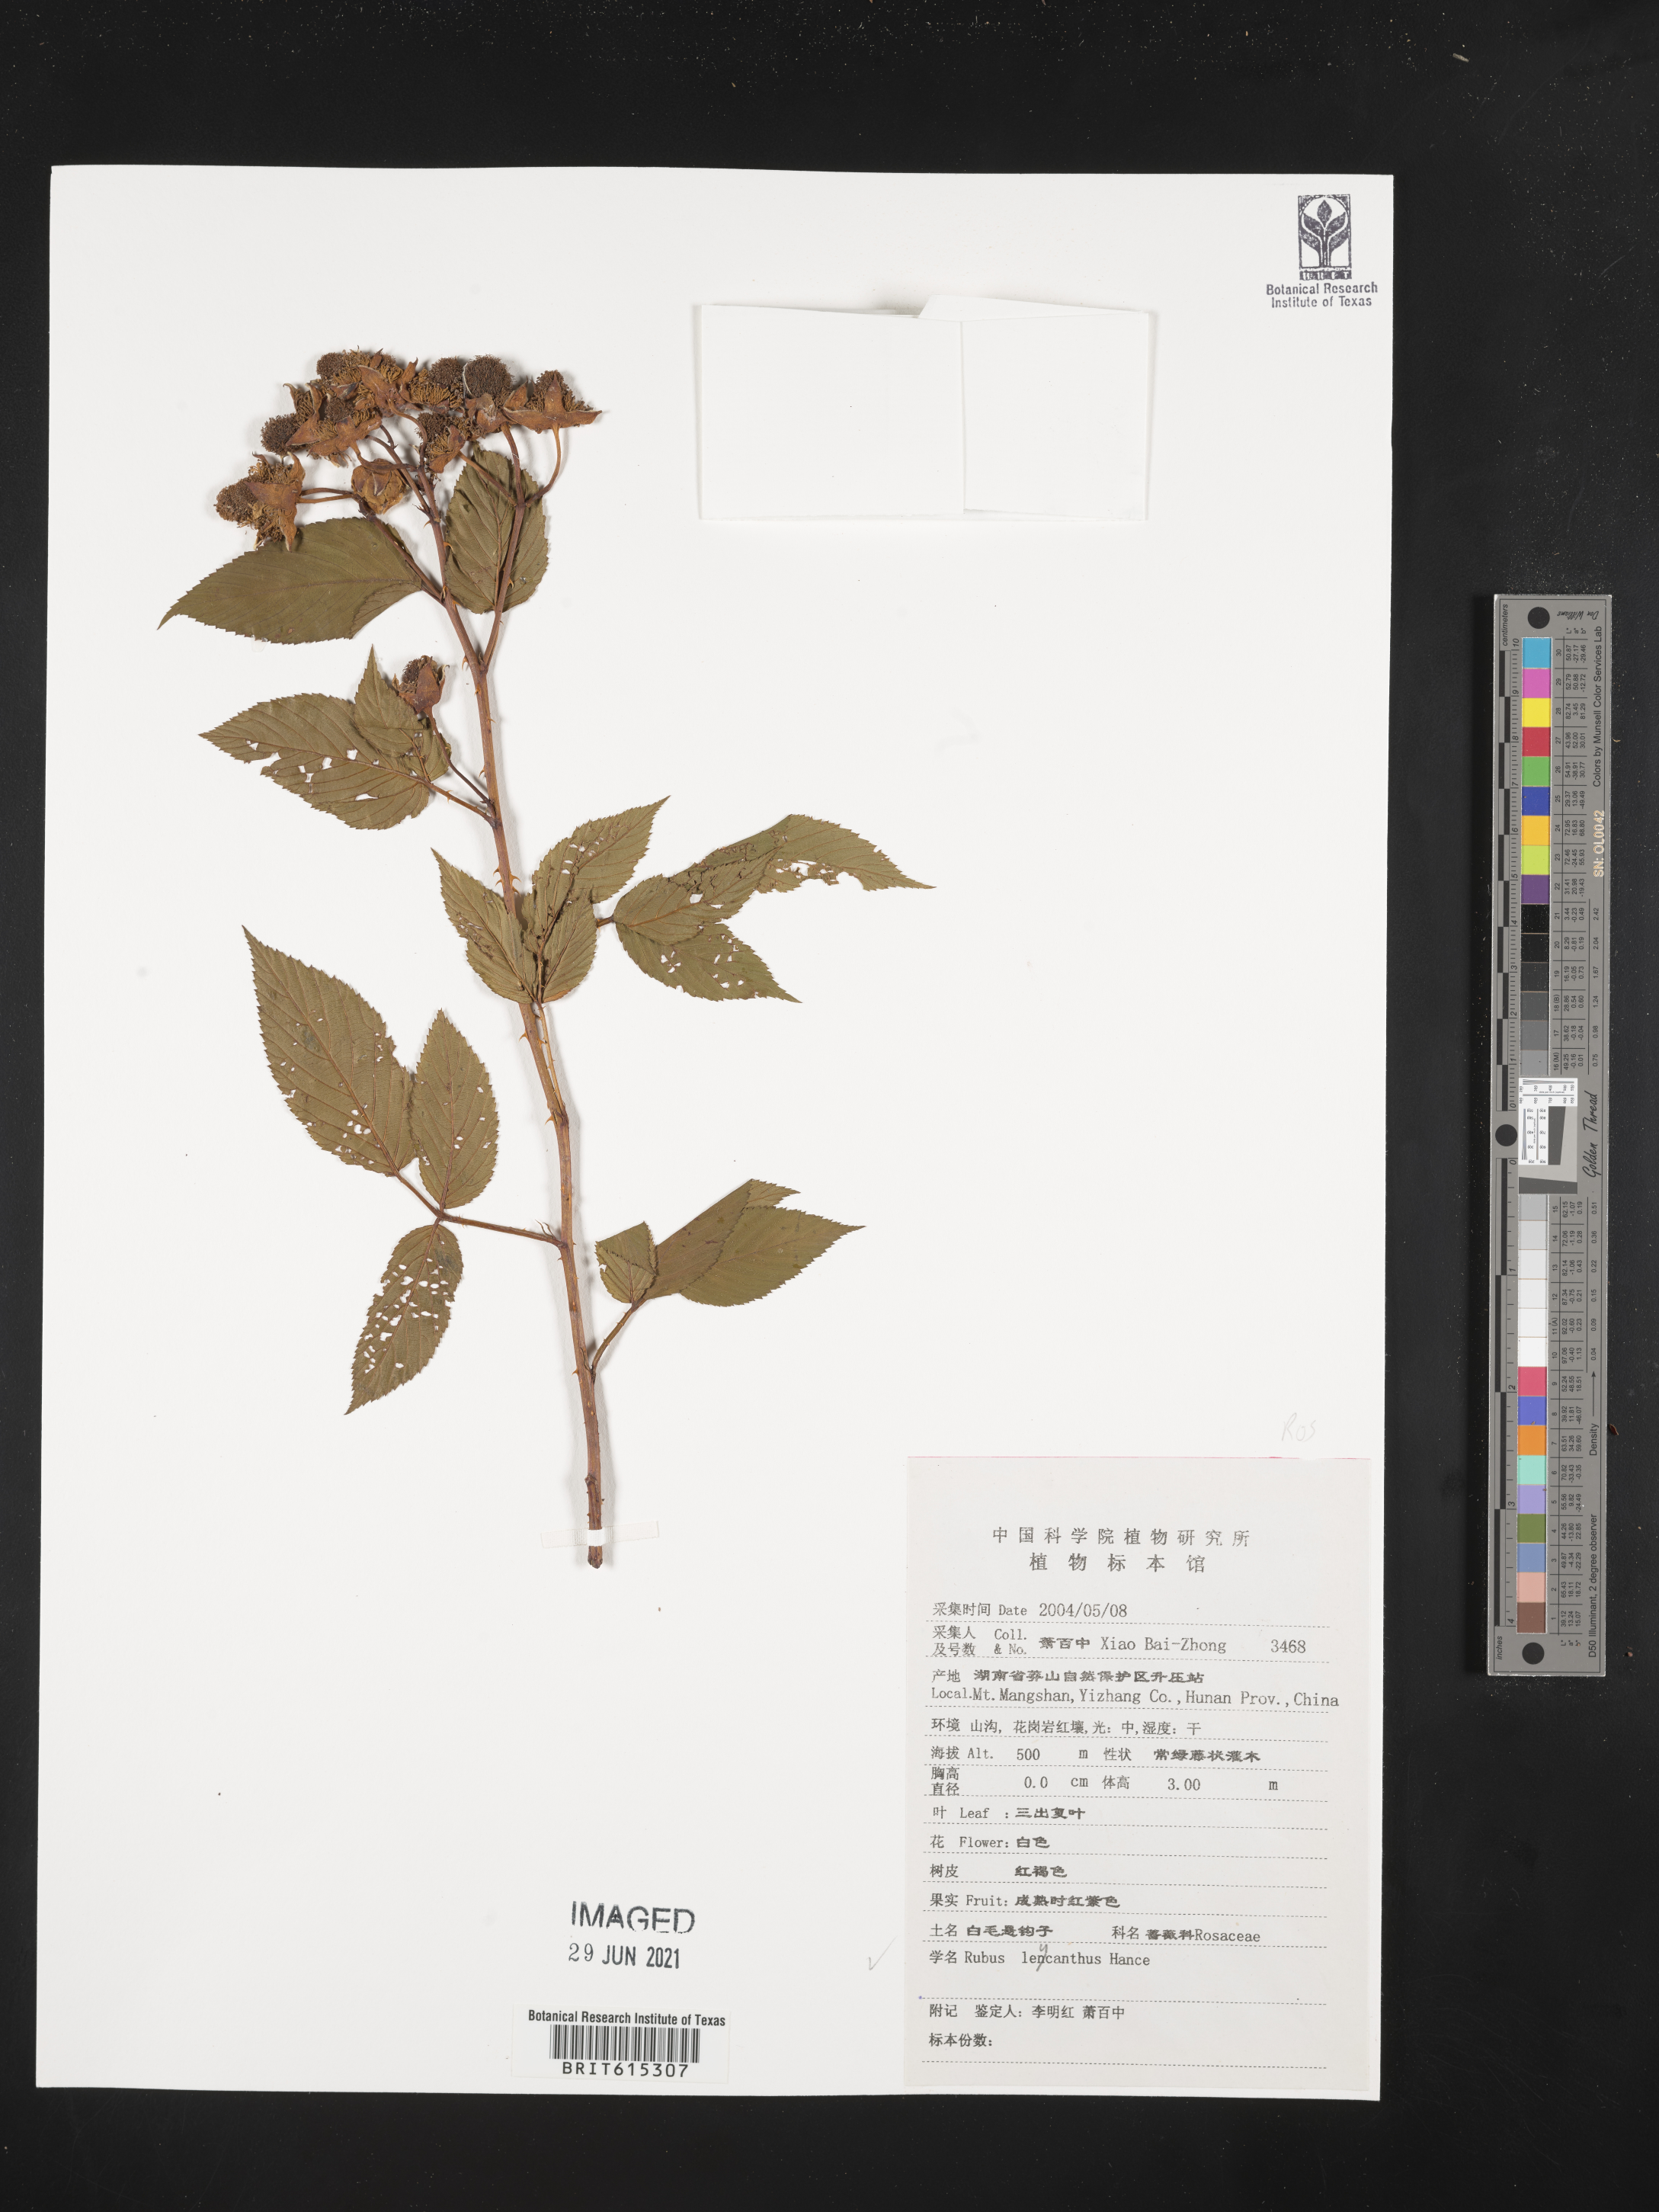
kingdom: Plantae
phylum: Tracheophyta
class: Magnoliopsida
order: Rosales
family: Rosaceae
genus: Rubus
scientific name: Rubus leucanthus
